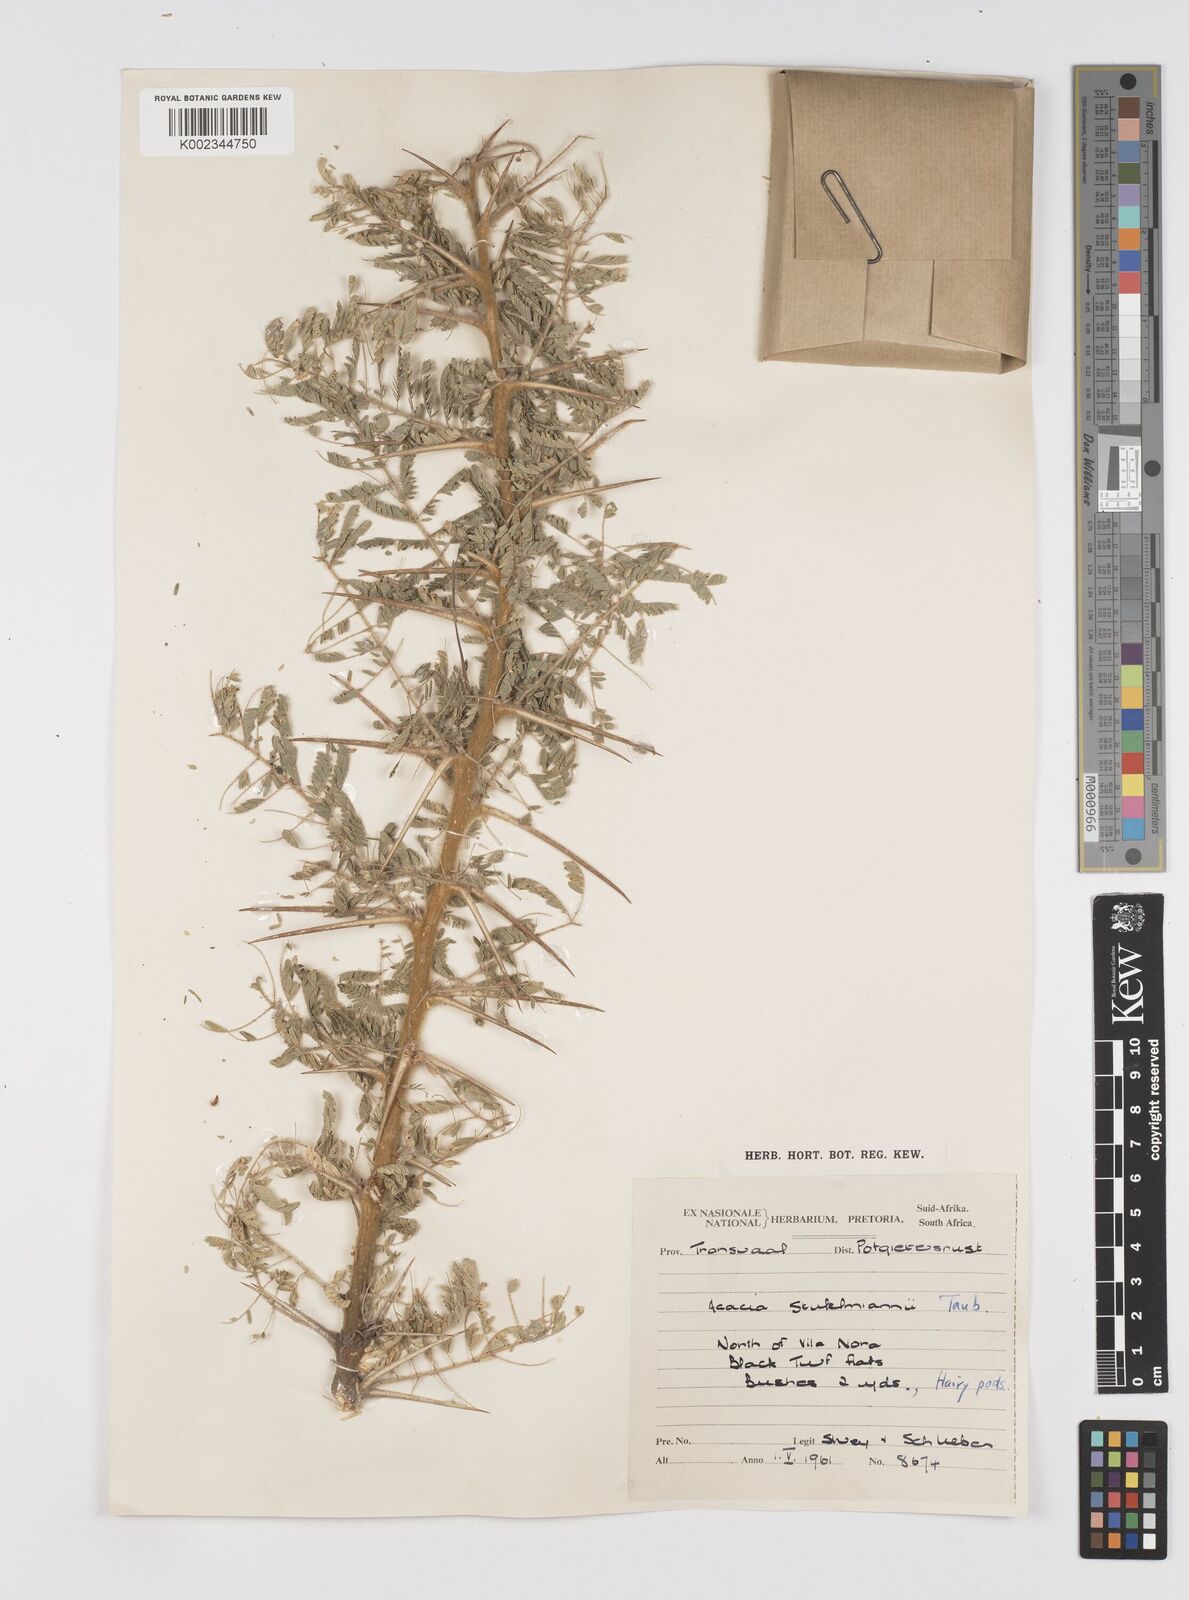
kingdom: Plantae
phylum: Tracheophyta
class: Magnoliopsida
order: Fabales
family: Fabaceae
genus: Vachellia
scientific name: Vachellia stuhlmannii
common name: Vlei thorn
